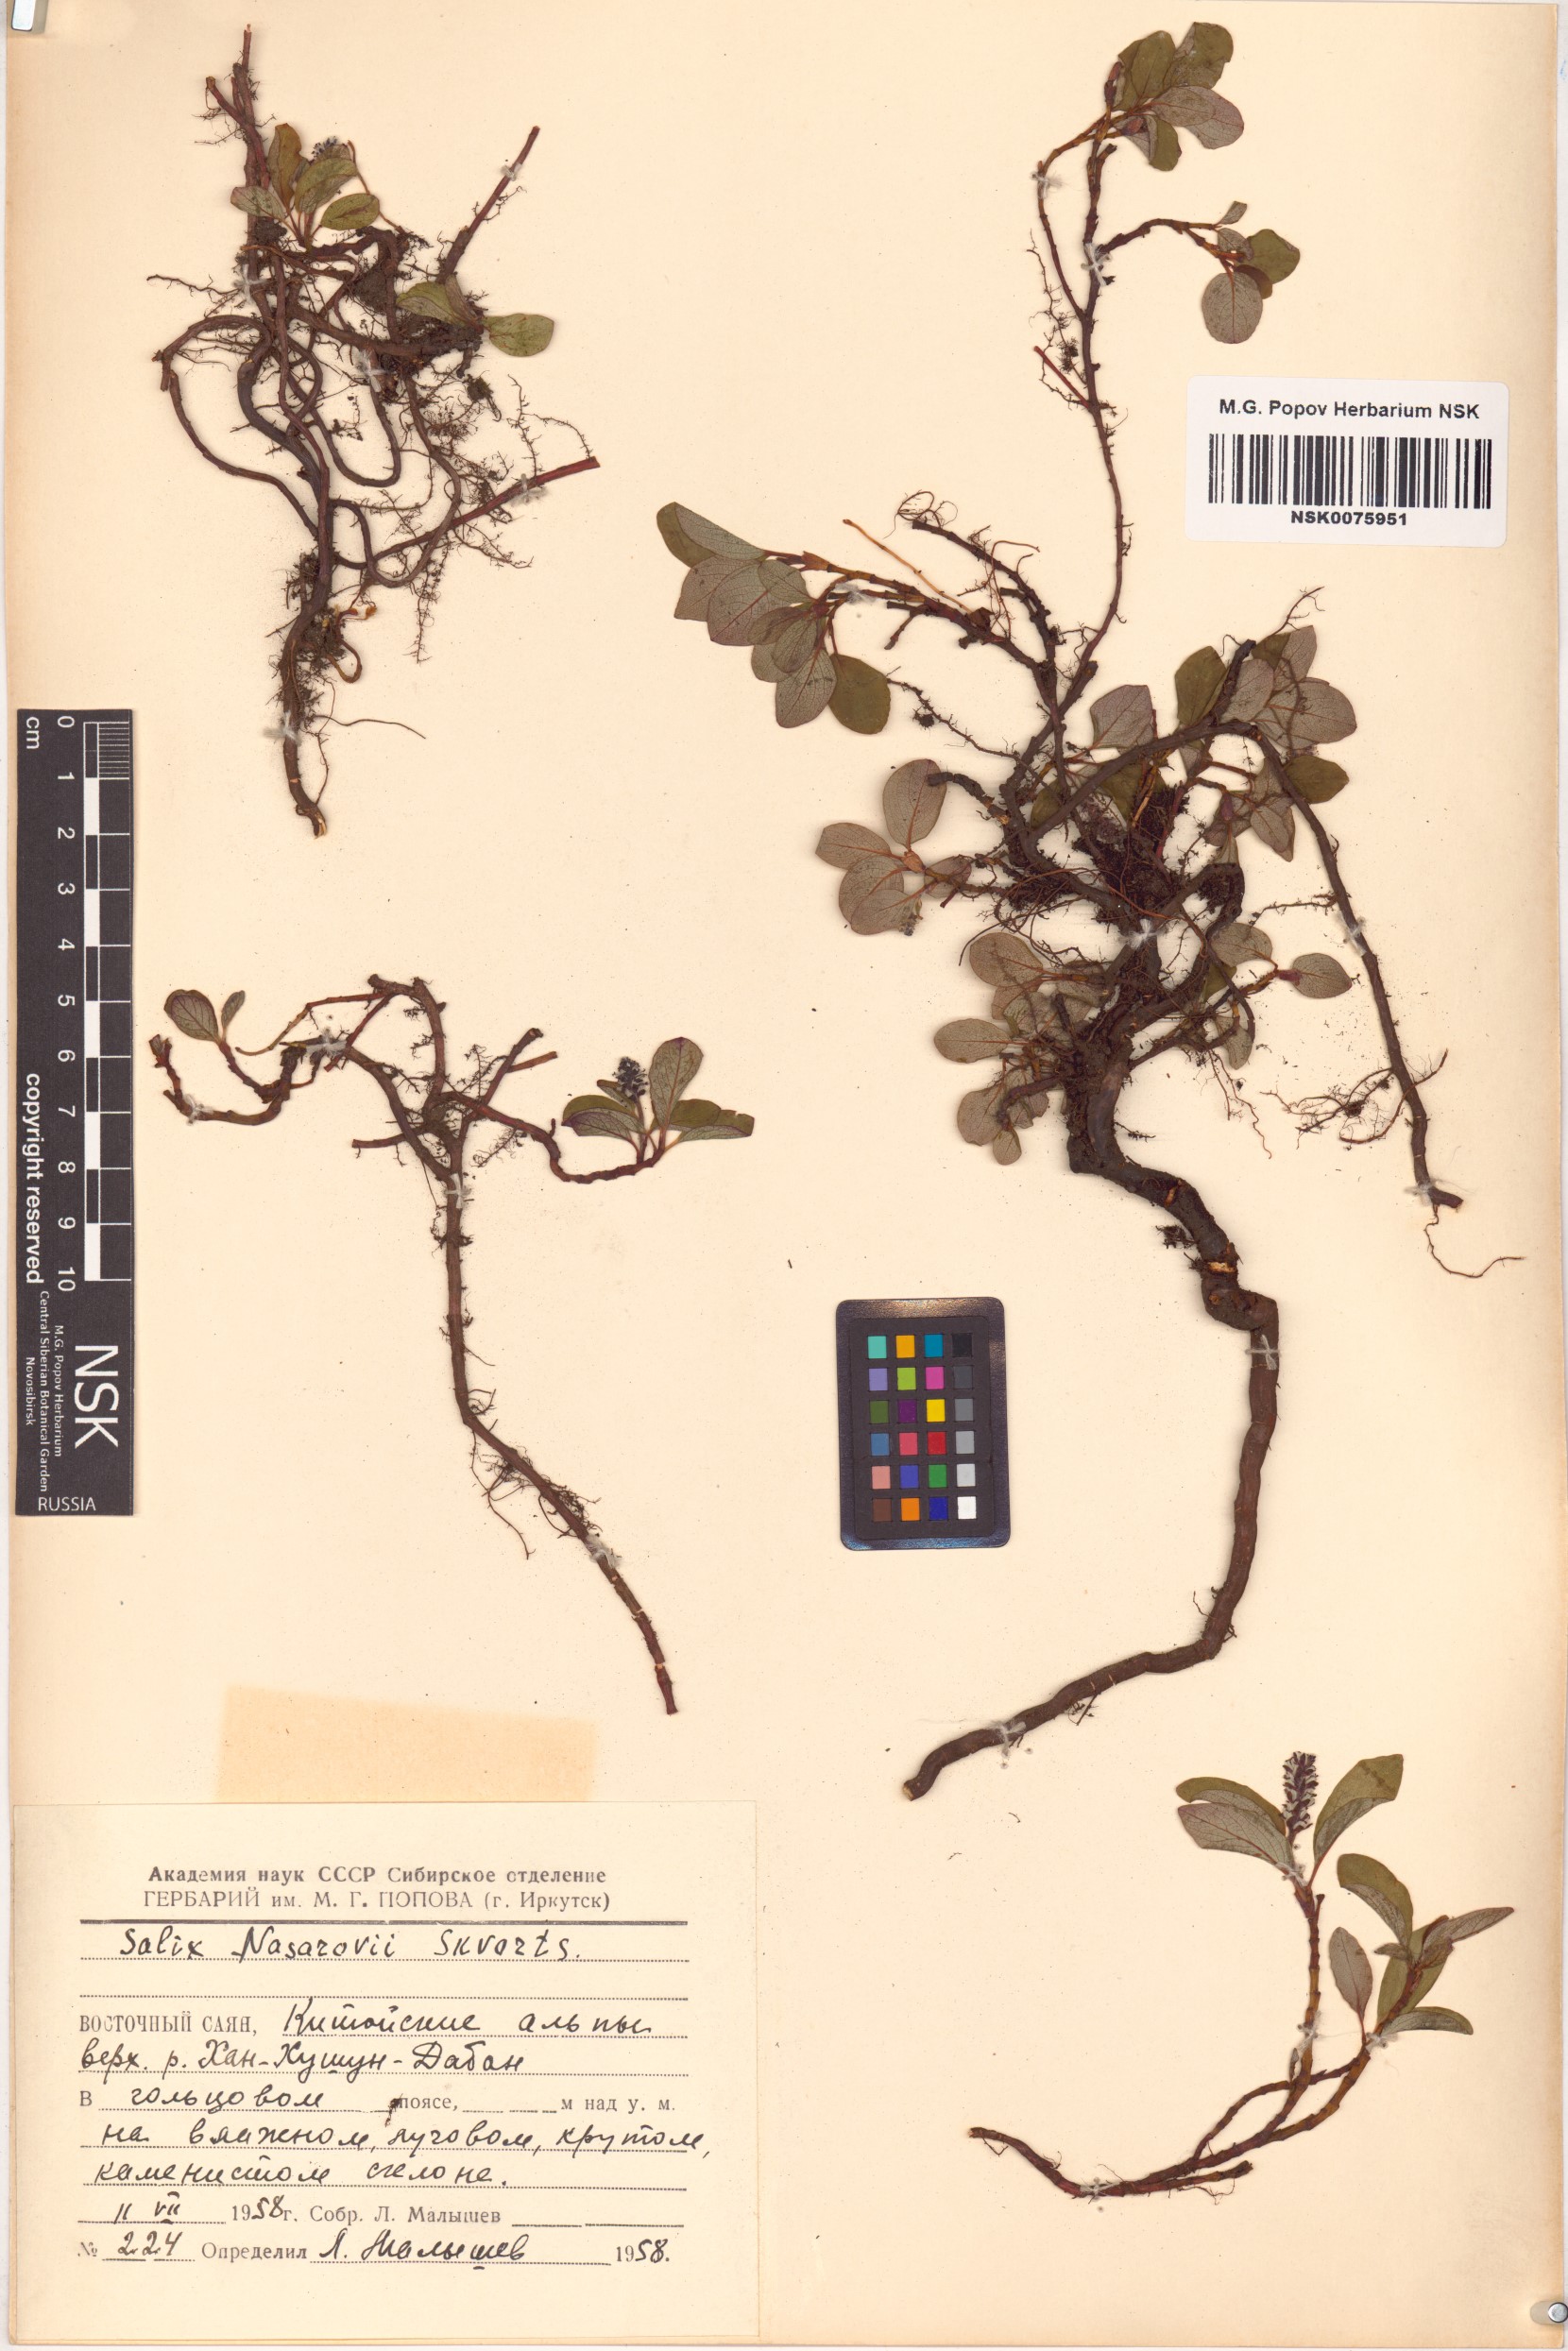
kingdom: Plantae
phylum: Tracheophyta
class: Magnoliopsida
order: Malpighiales
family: Salicaceae
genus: Salix
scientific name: Salix nasarovii
